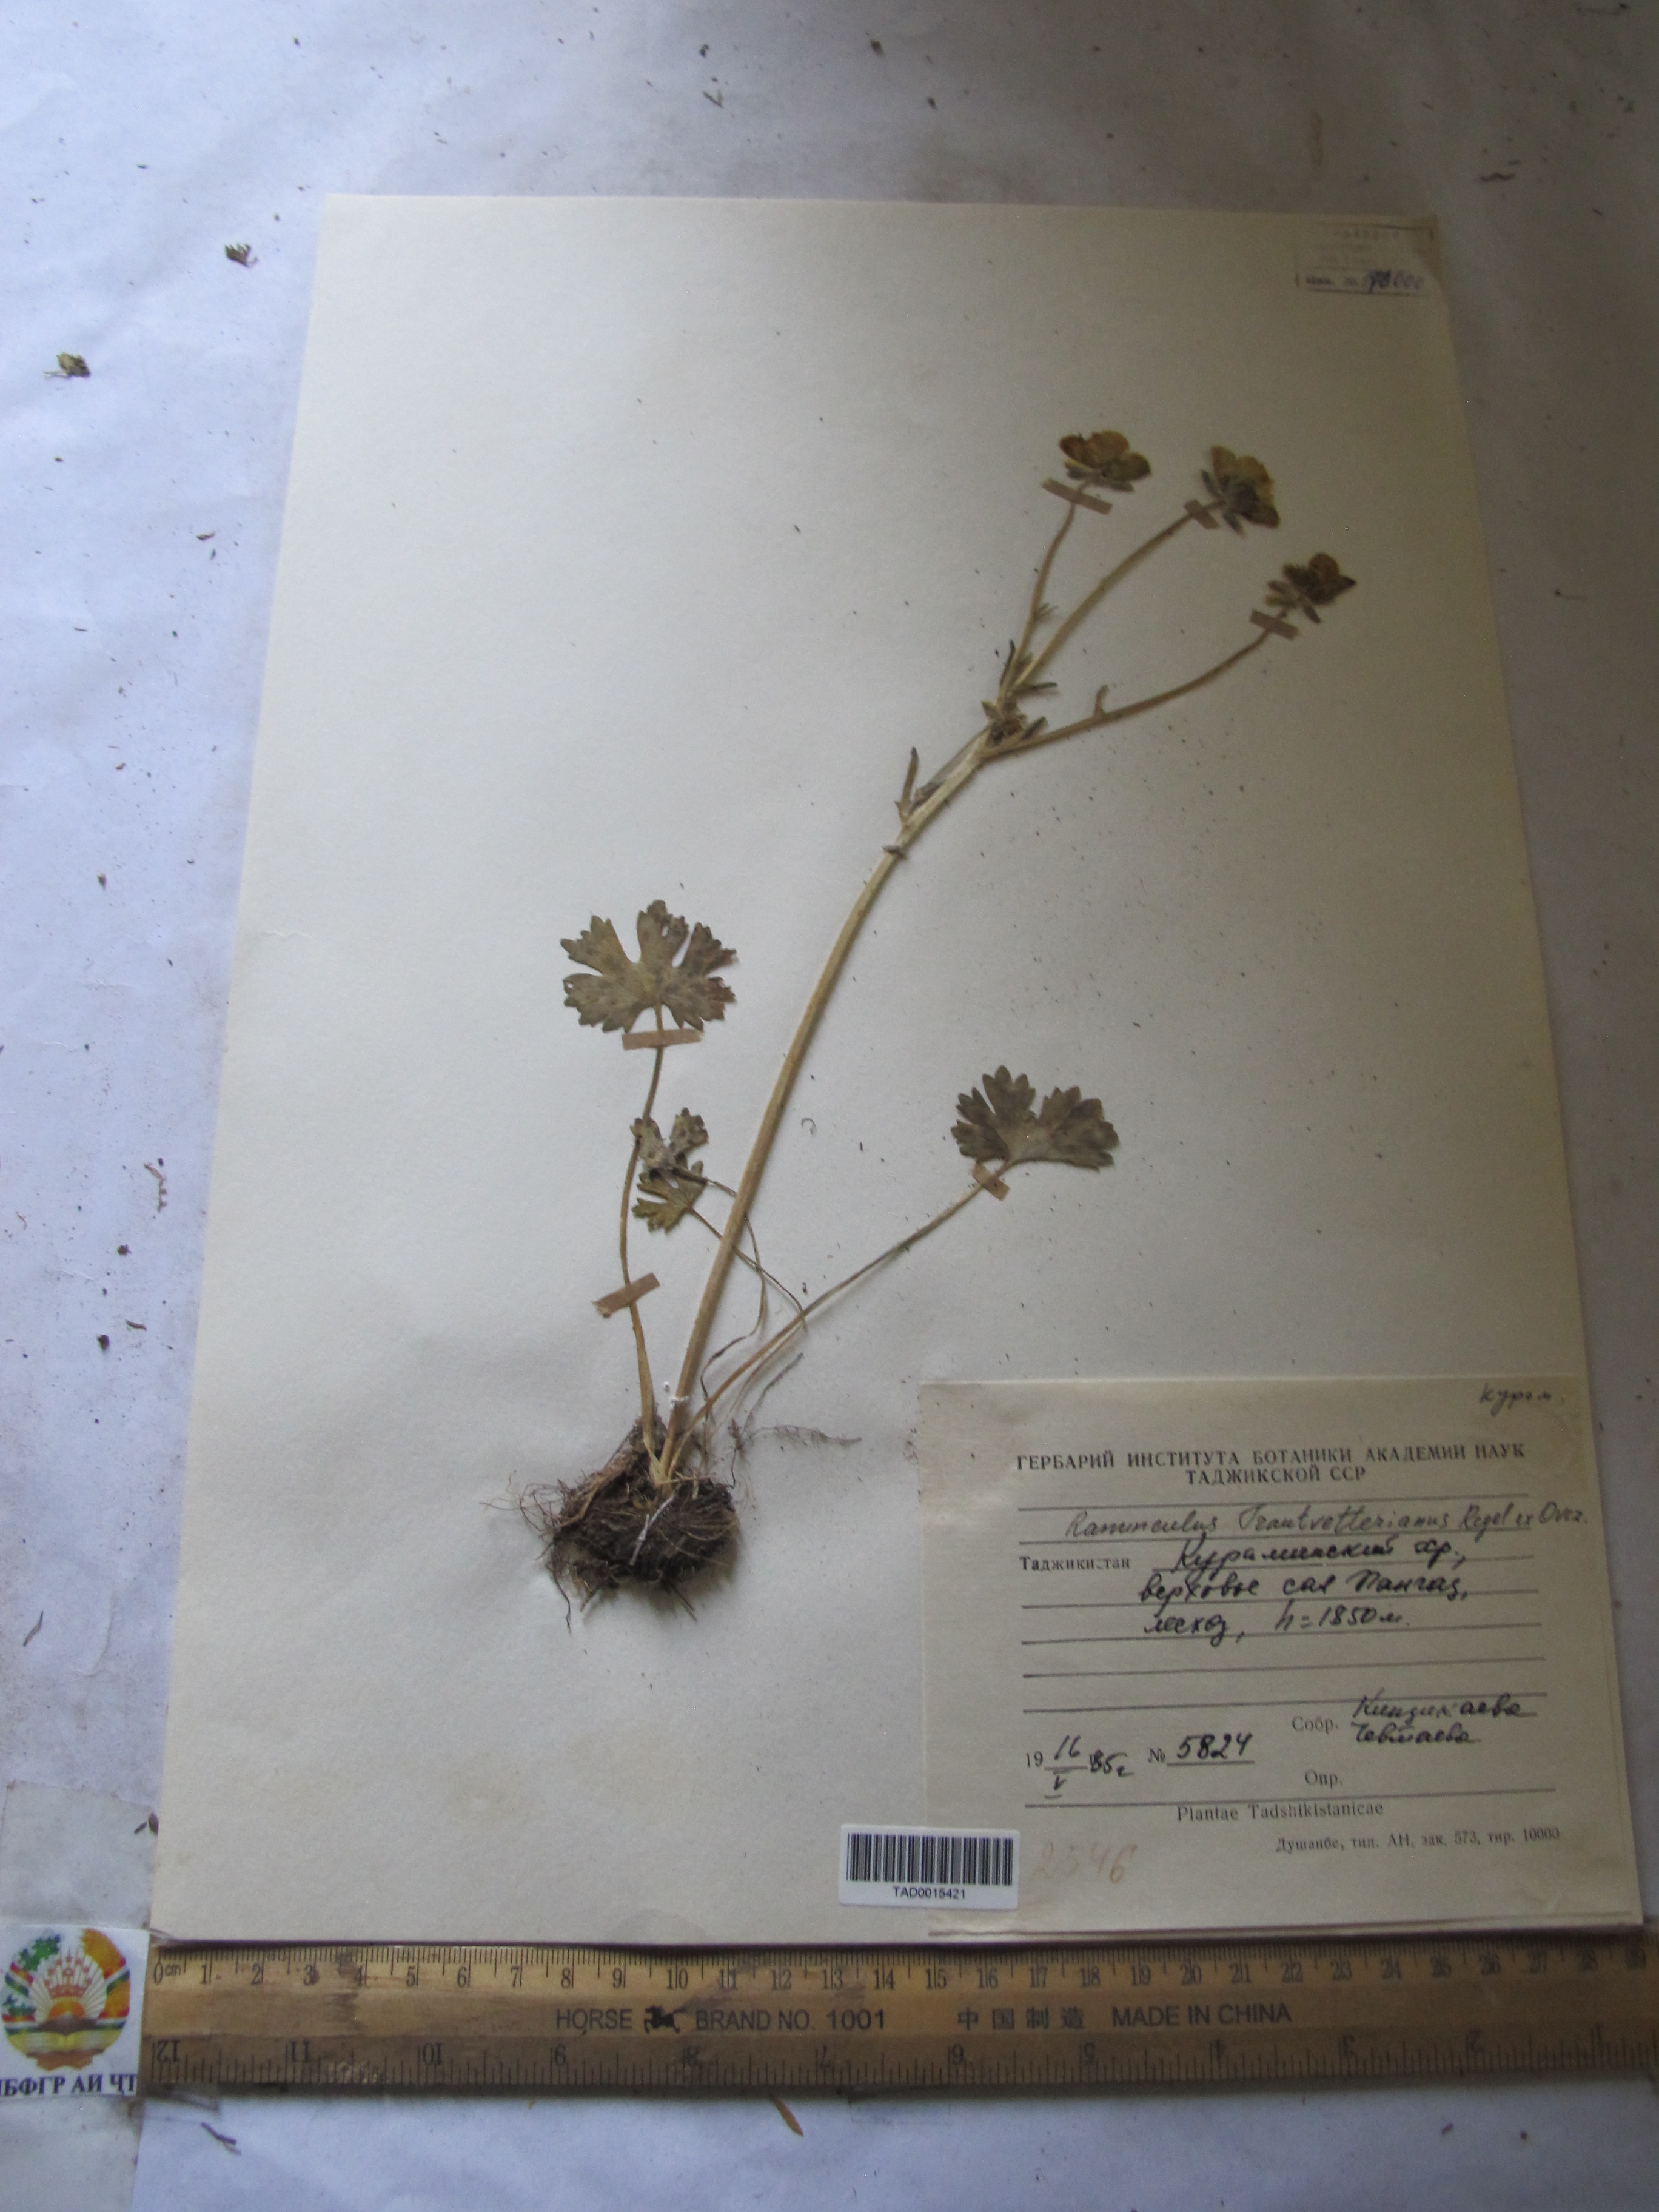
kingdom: Plantae
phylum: Tracheophyta
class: Magnoliopsida
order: Ranunculales
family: Ranunculaceae
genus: Ranunculus
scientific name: Ranunculus songaricus
